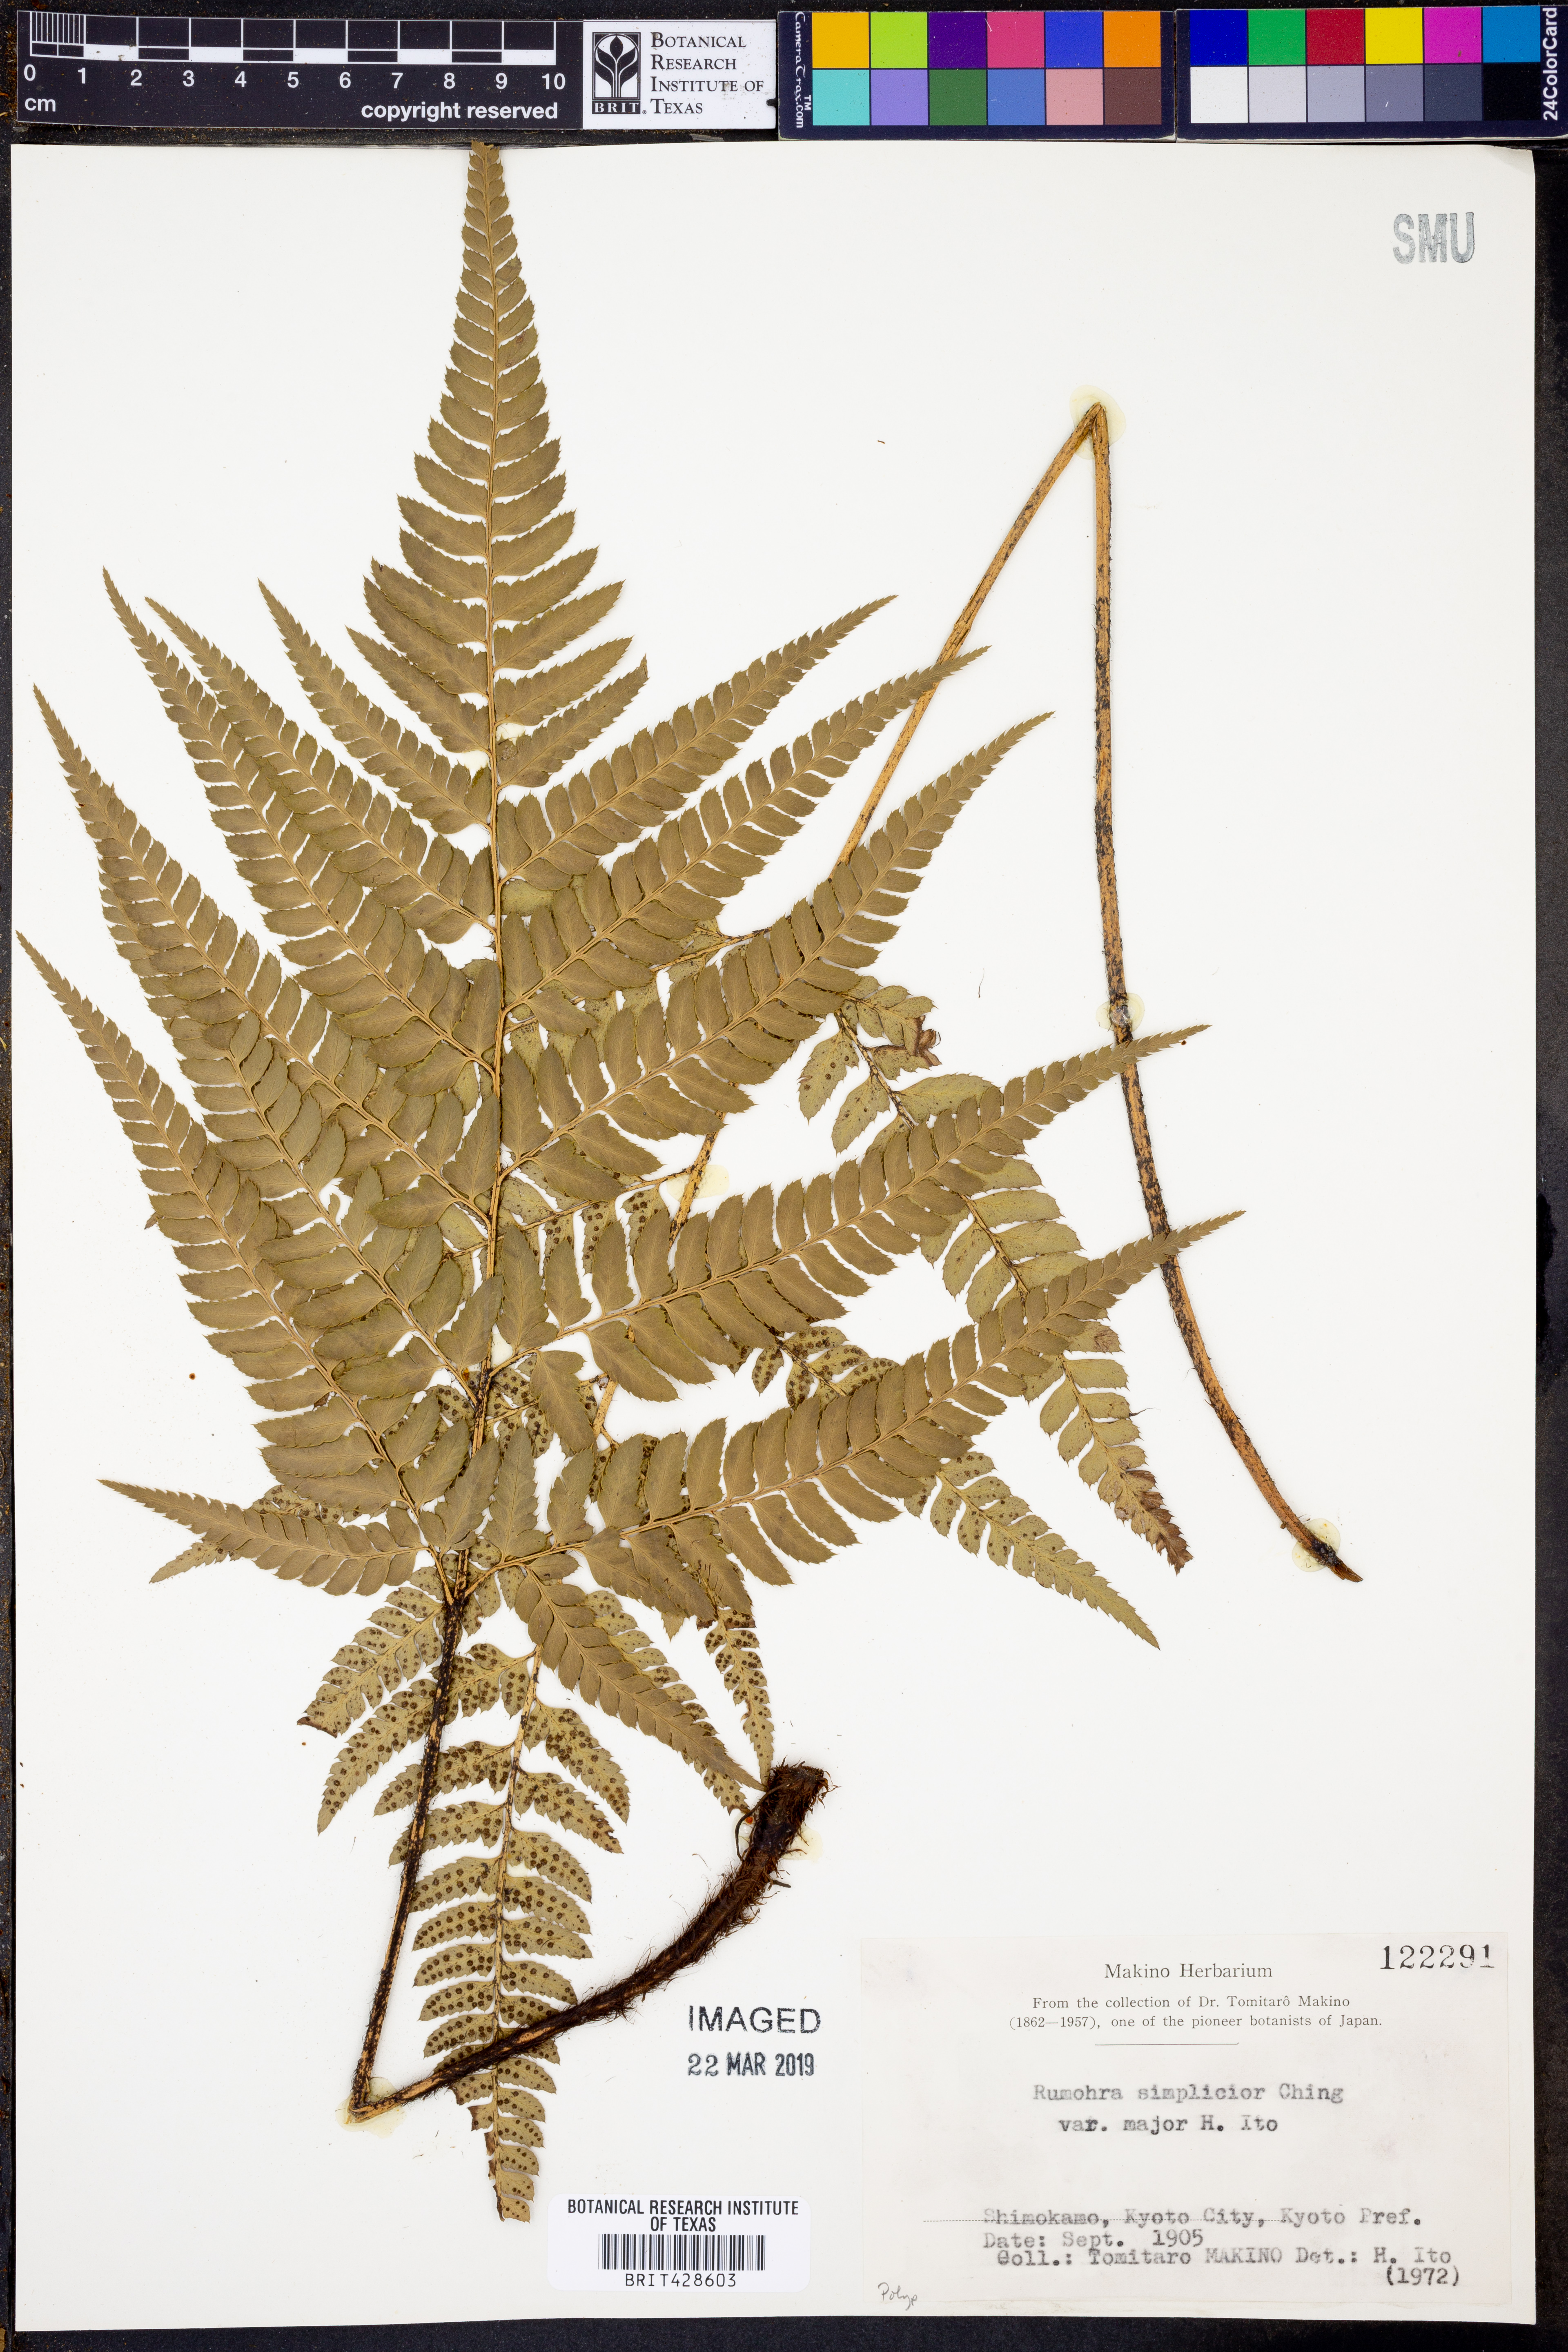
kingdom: Plantae
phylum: Tracheophyta
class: Polypodiopsida
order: Polypodiales
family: Dryopteridaceae
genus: Arachniodes
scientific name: Arachniodes chinensis
